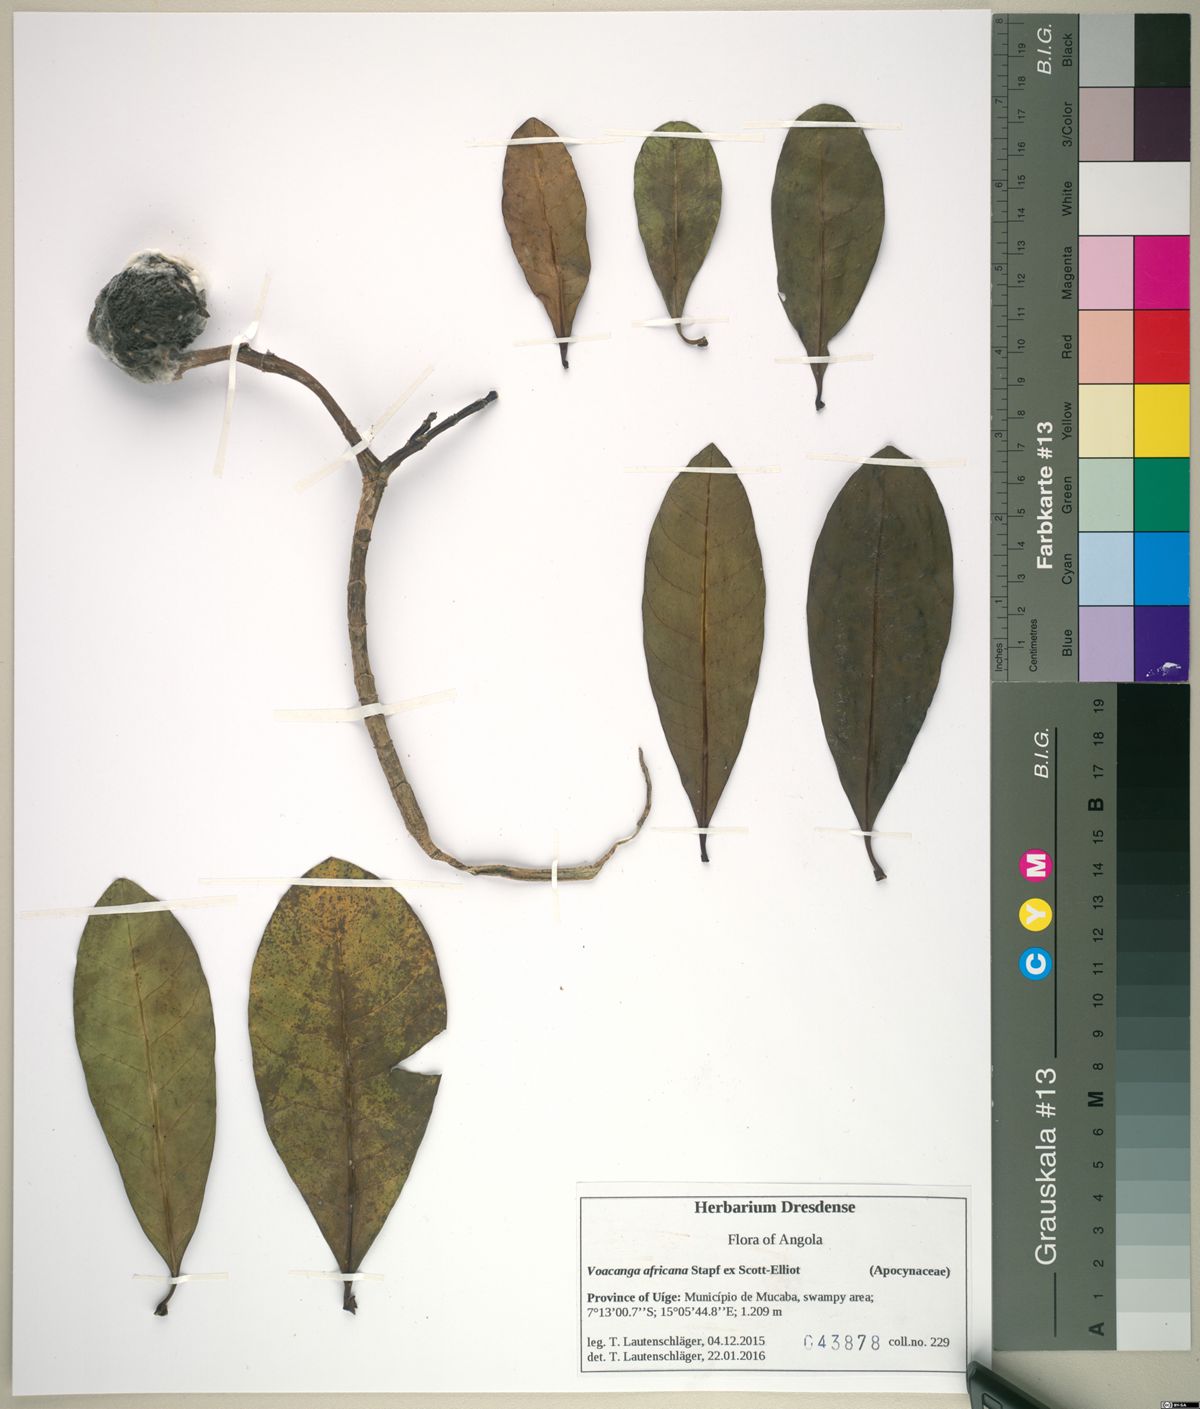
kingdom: Plantae
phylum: Tracheophyta
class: Magnoliopsida
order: Gentianales
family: Apocynaceae
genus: Voacanga
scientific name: Voacanga thouarsii
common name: Wild frangipani
